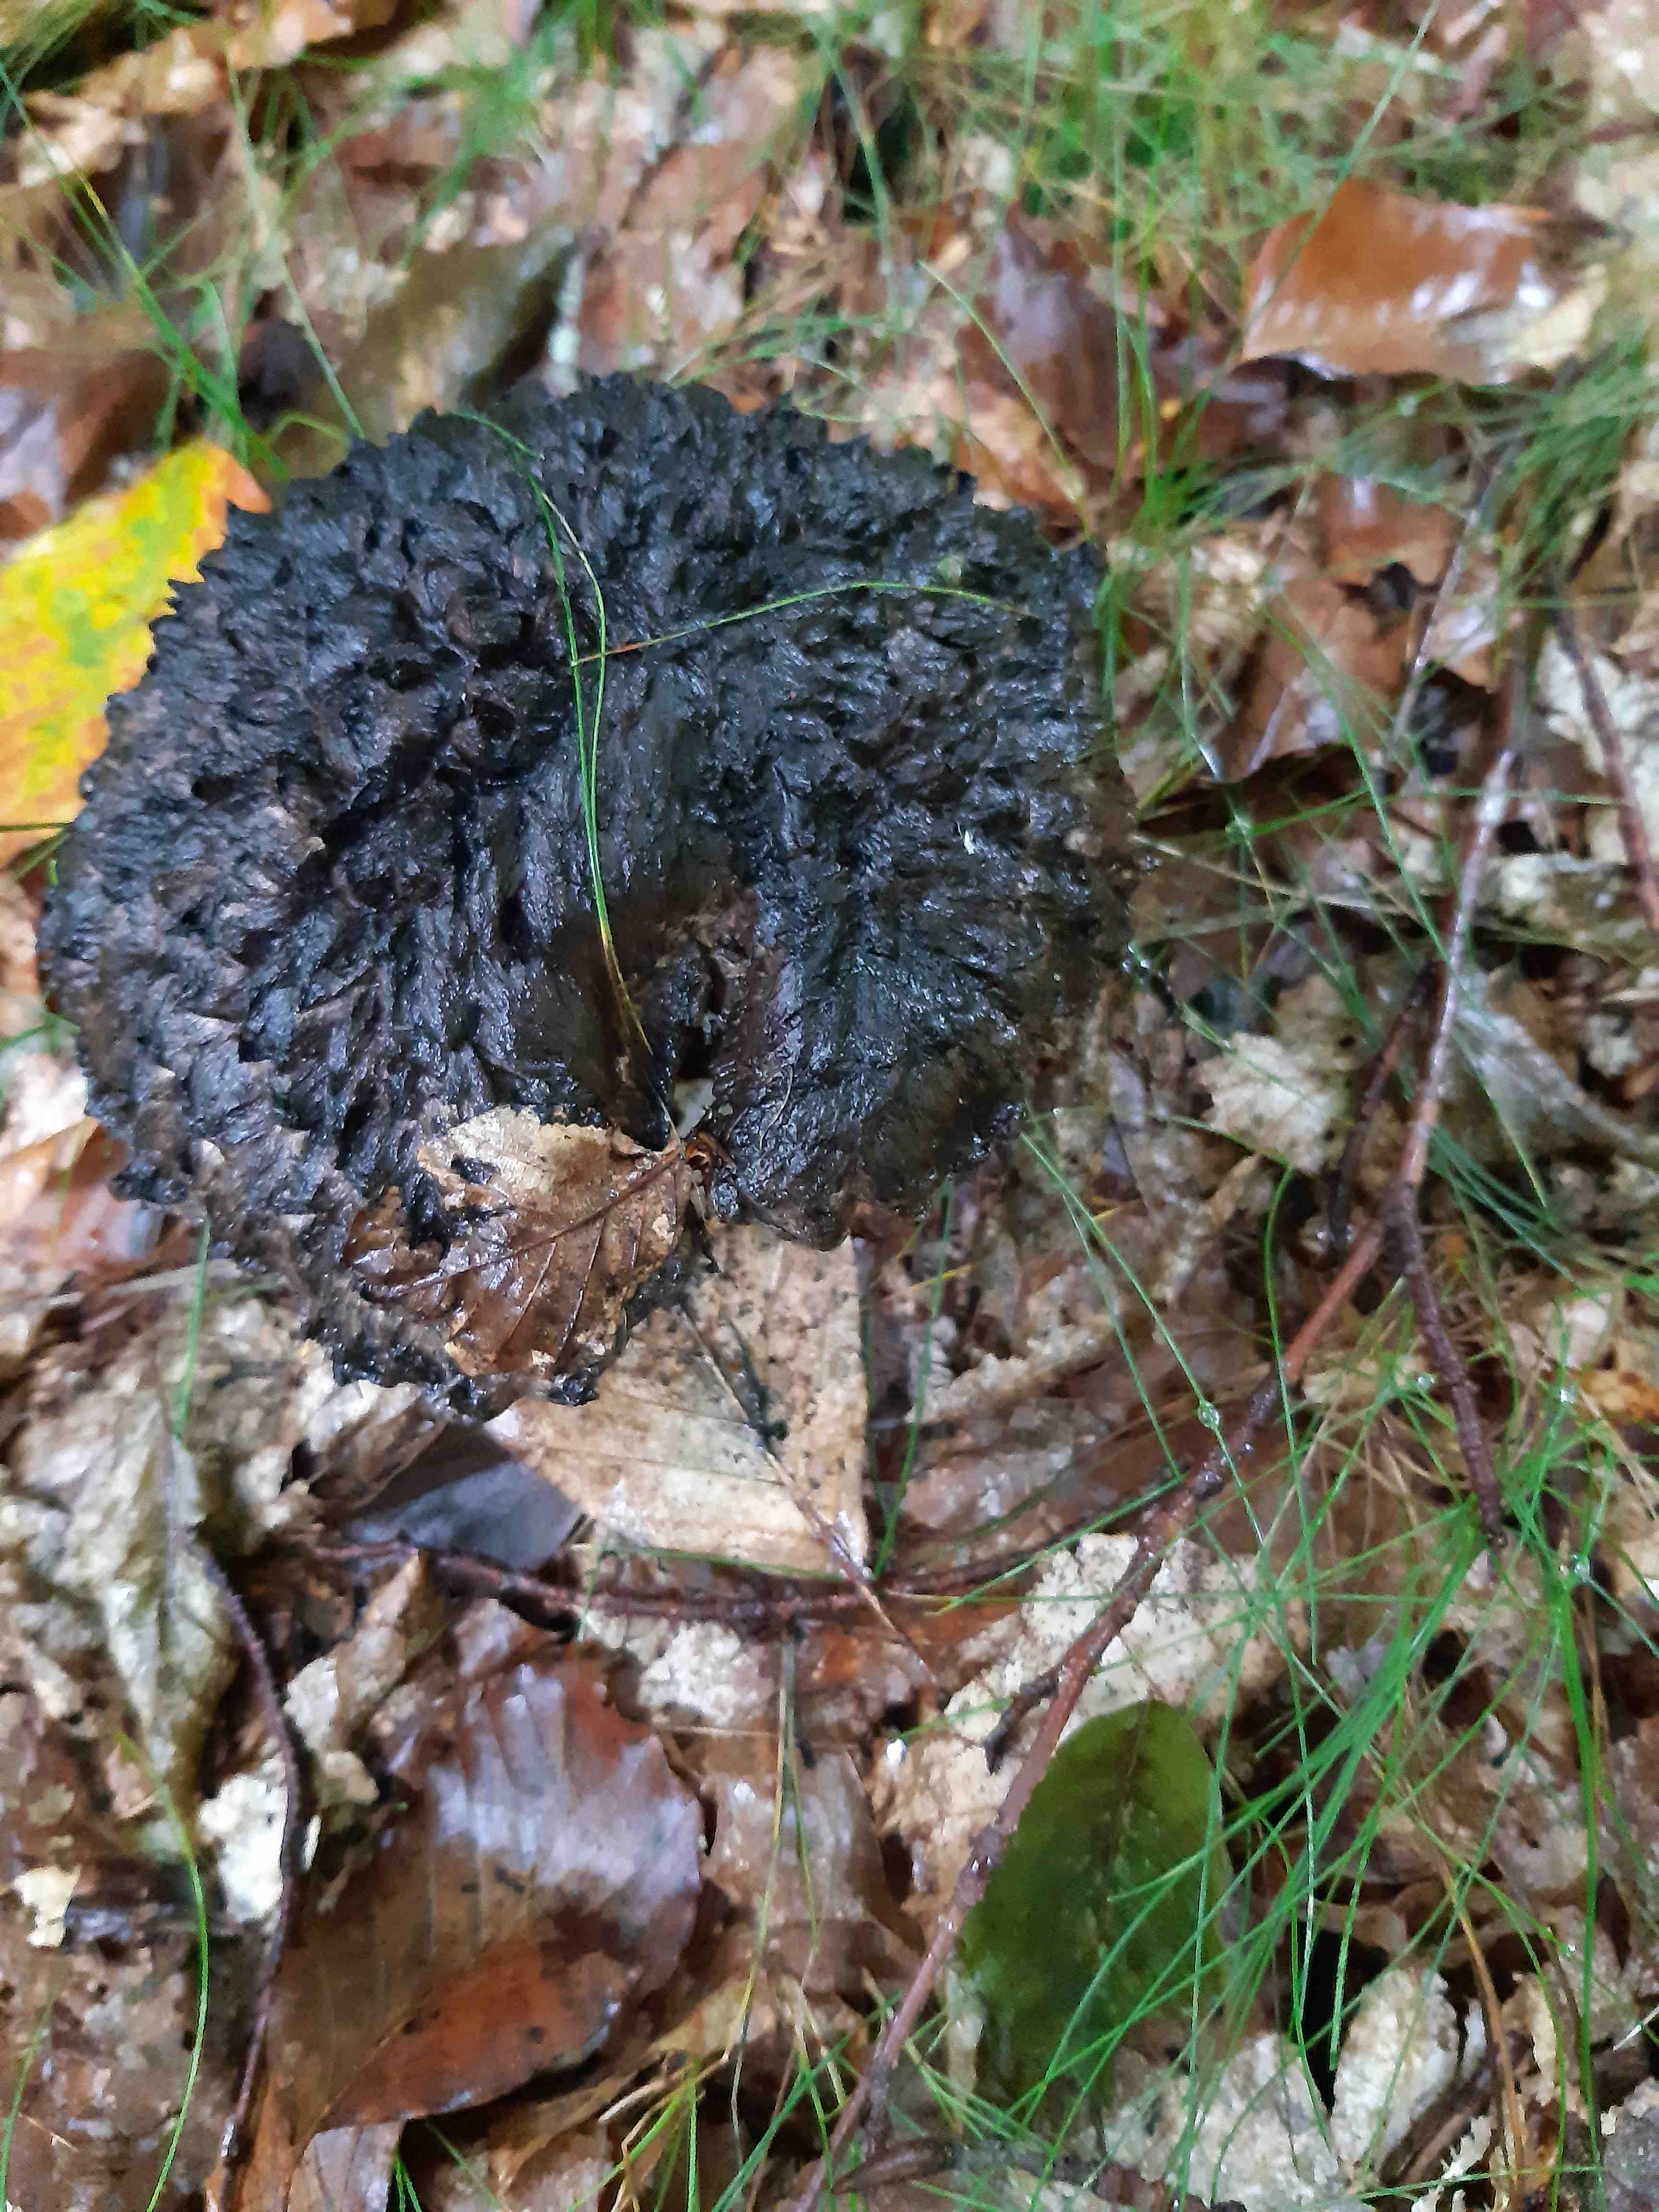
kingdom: Fungi
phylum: Basidiomycota
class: Agaricomycetes
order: Boletales
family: Boletaceae
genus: Strobilomyces
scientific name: Strobilomyces strobilaceus
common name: koglerørhat
